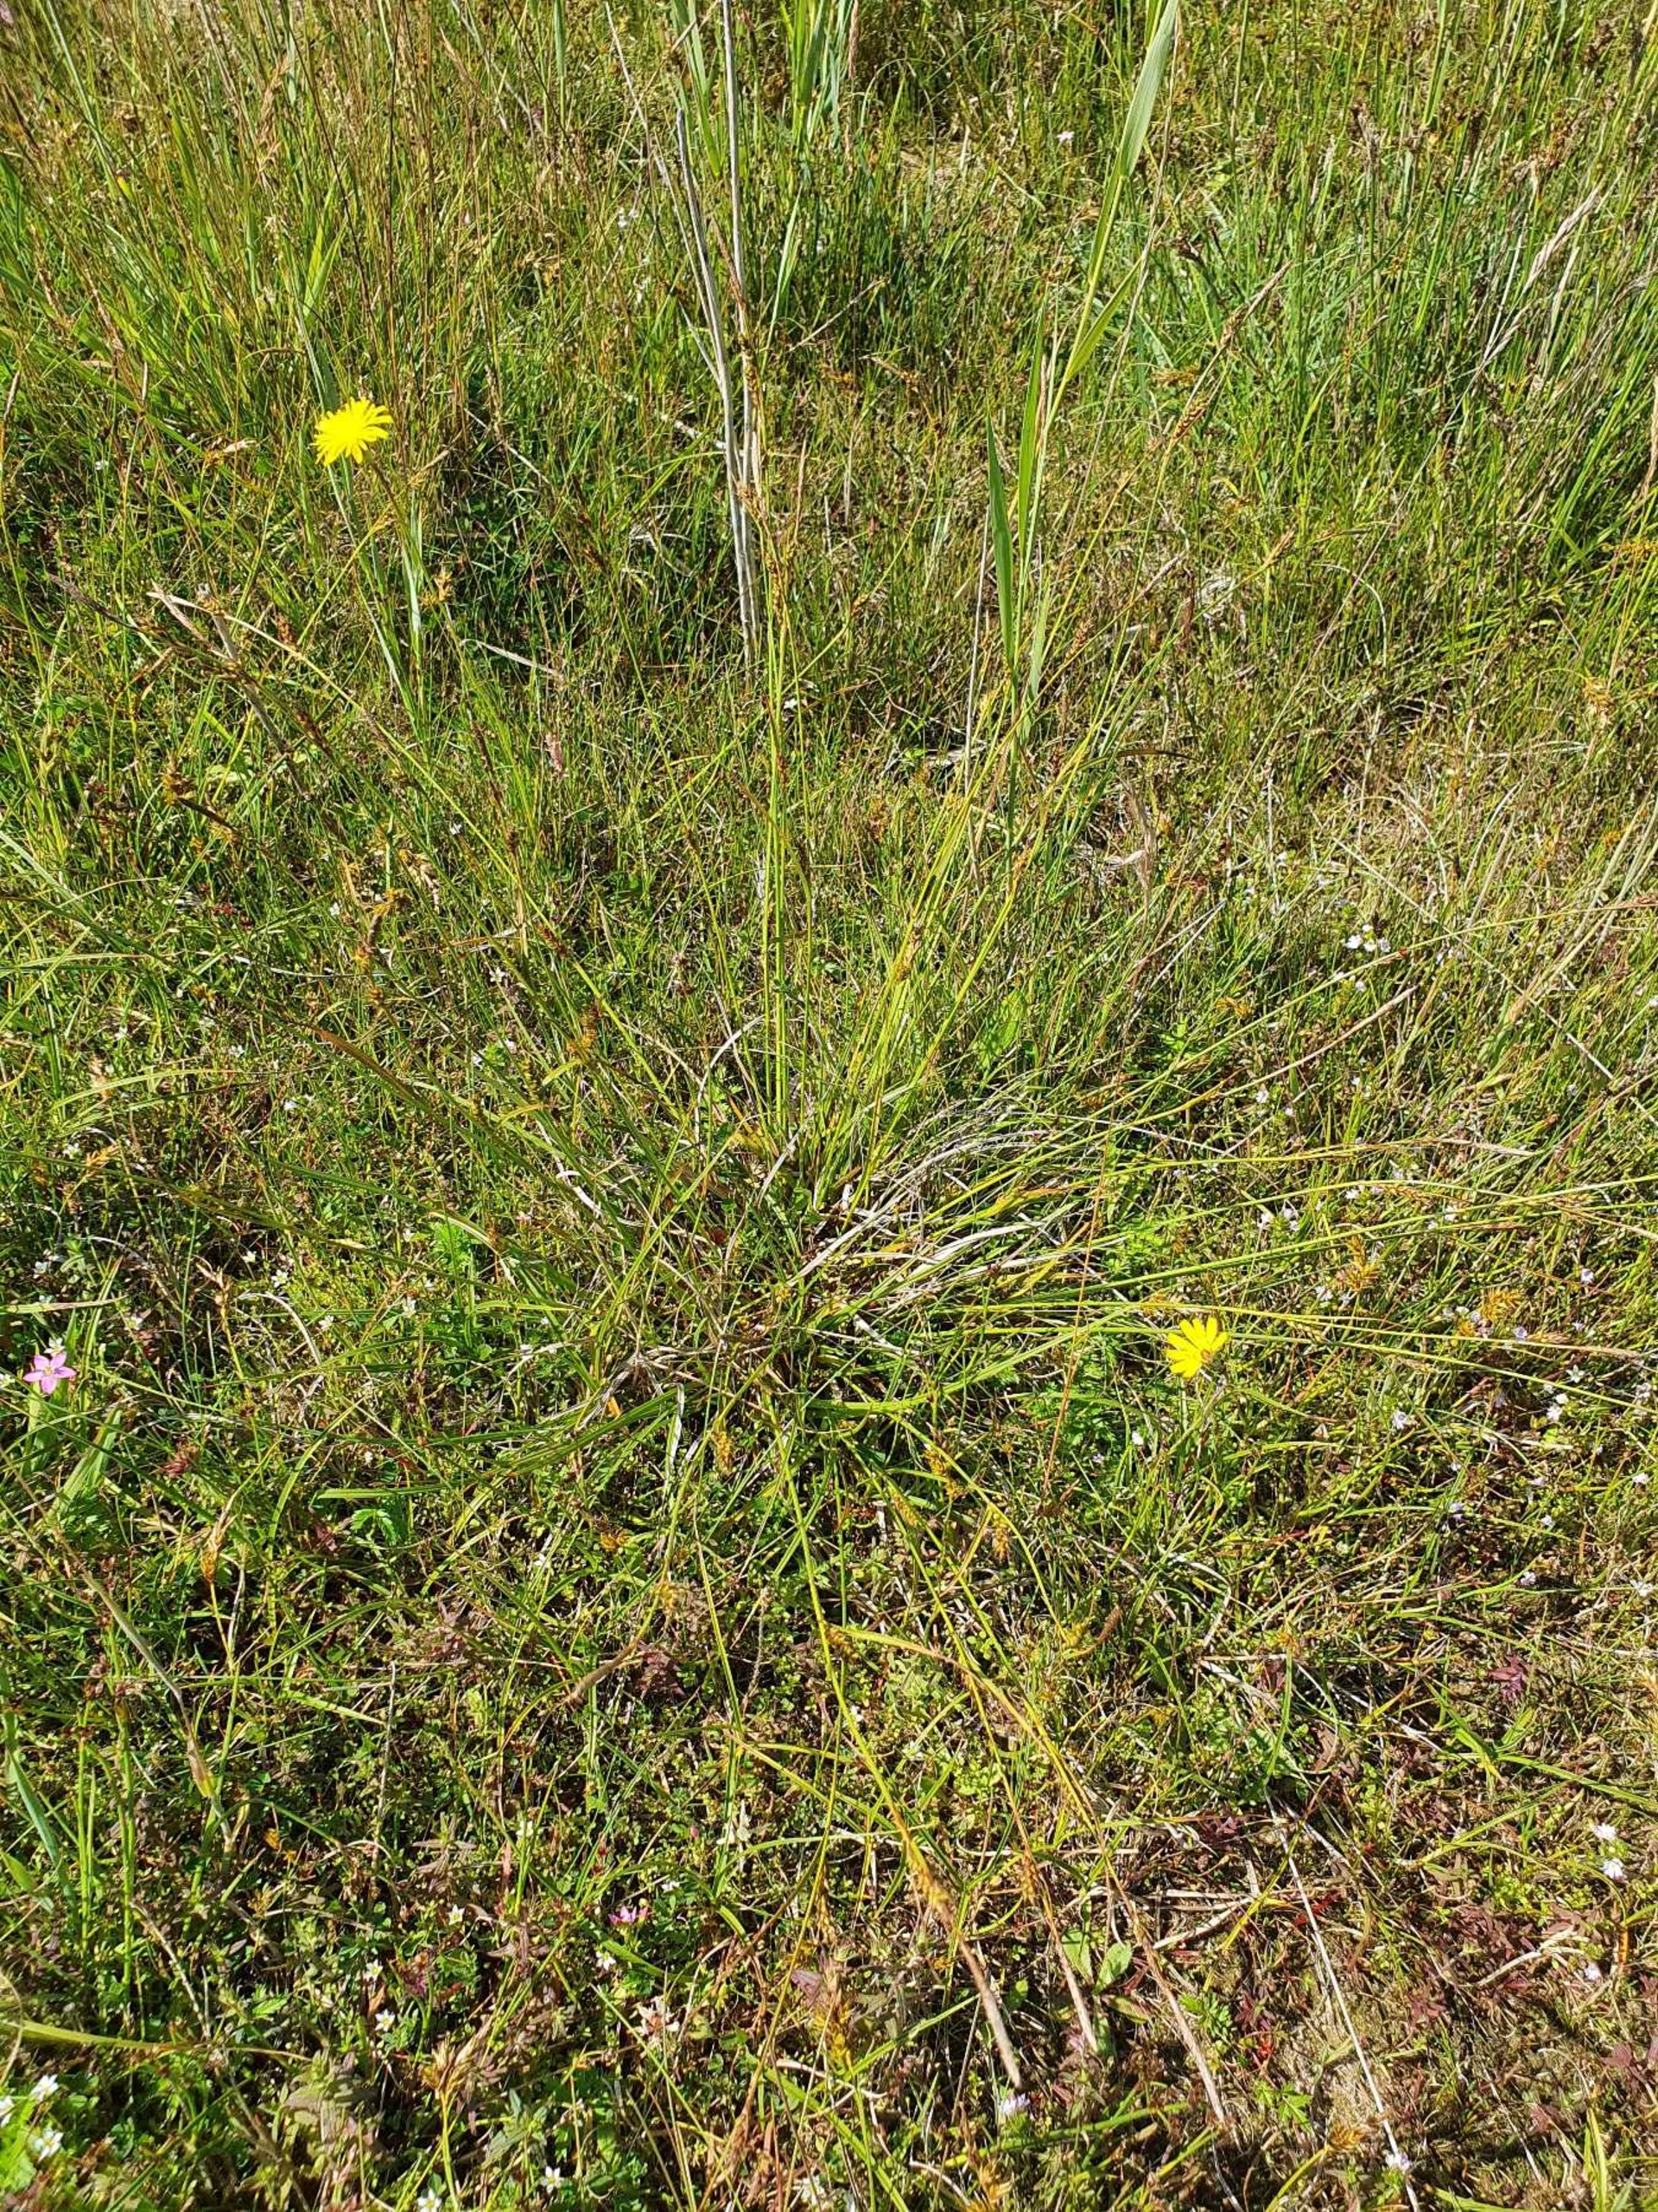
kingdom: Plantae
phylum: Tracheophyta
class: Liliopsida
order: Poales
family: Cyperaceae
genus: Carex
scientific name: Carex distans
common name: Fjernakset star
